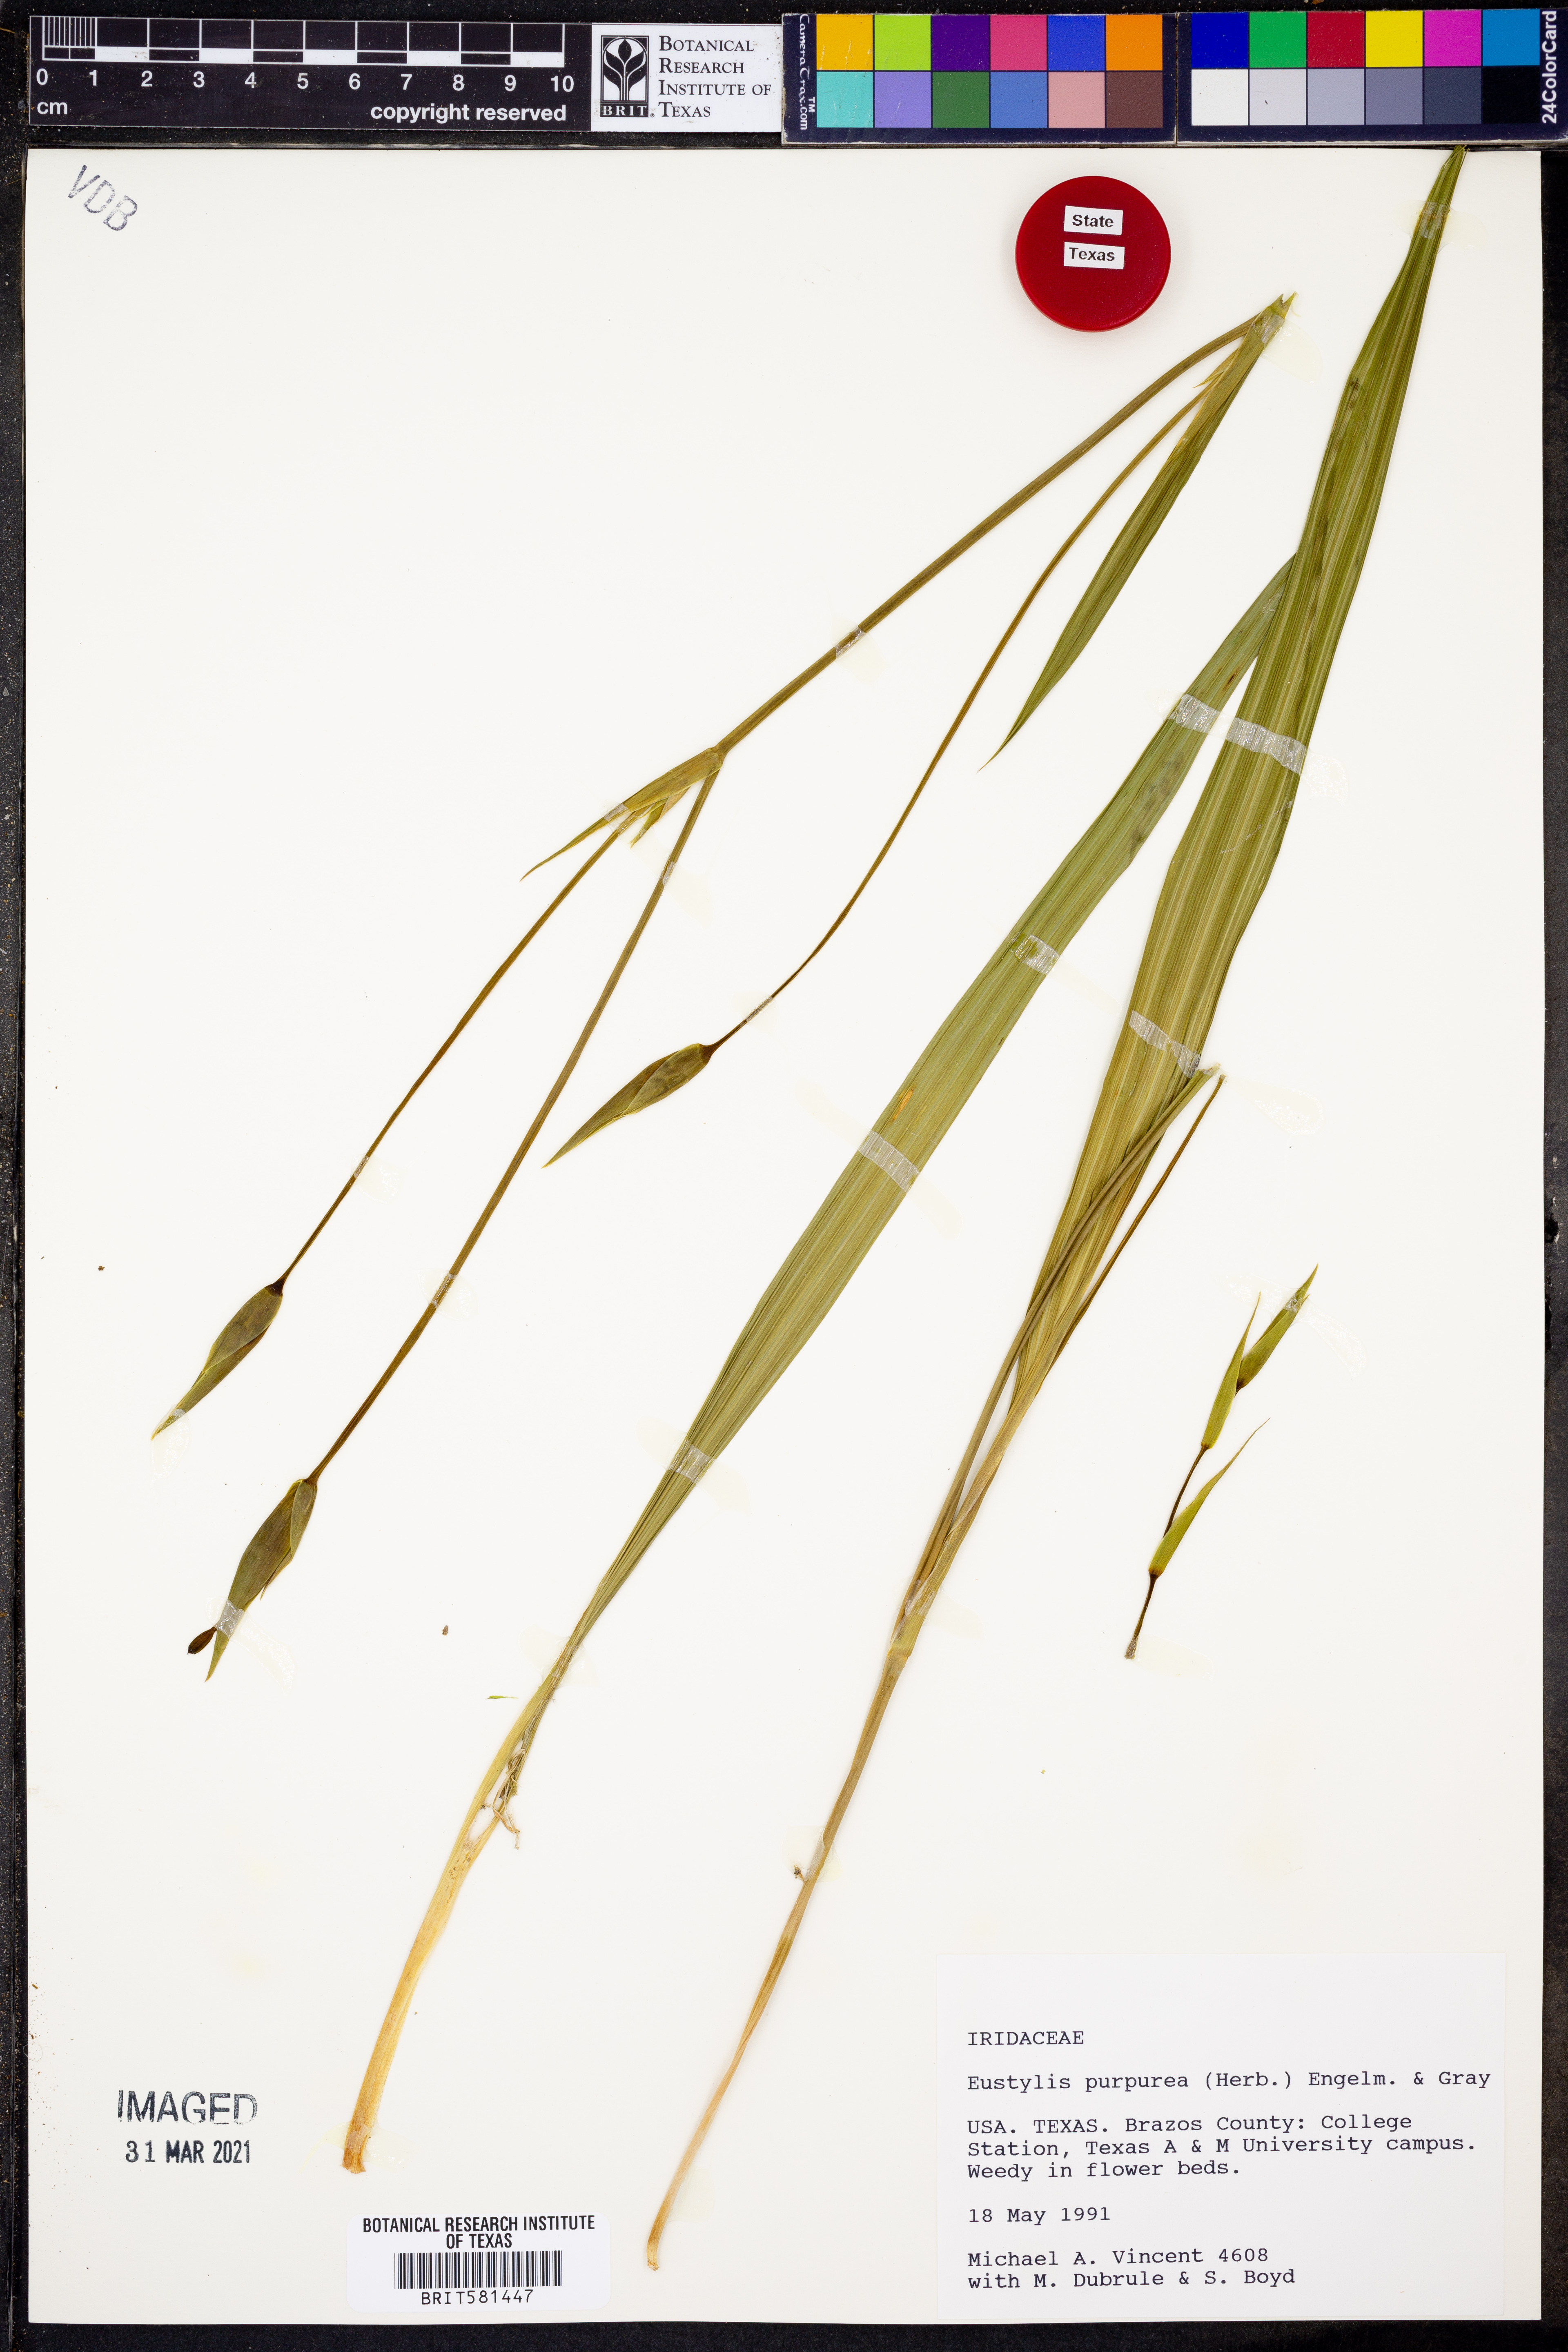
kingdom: Plantae
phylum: Tracheophyta
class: Liliopsida
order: Asparagales
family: Iridaceae
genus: Alophia
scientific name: Alophia drummondii
